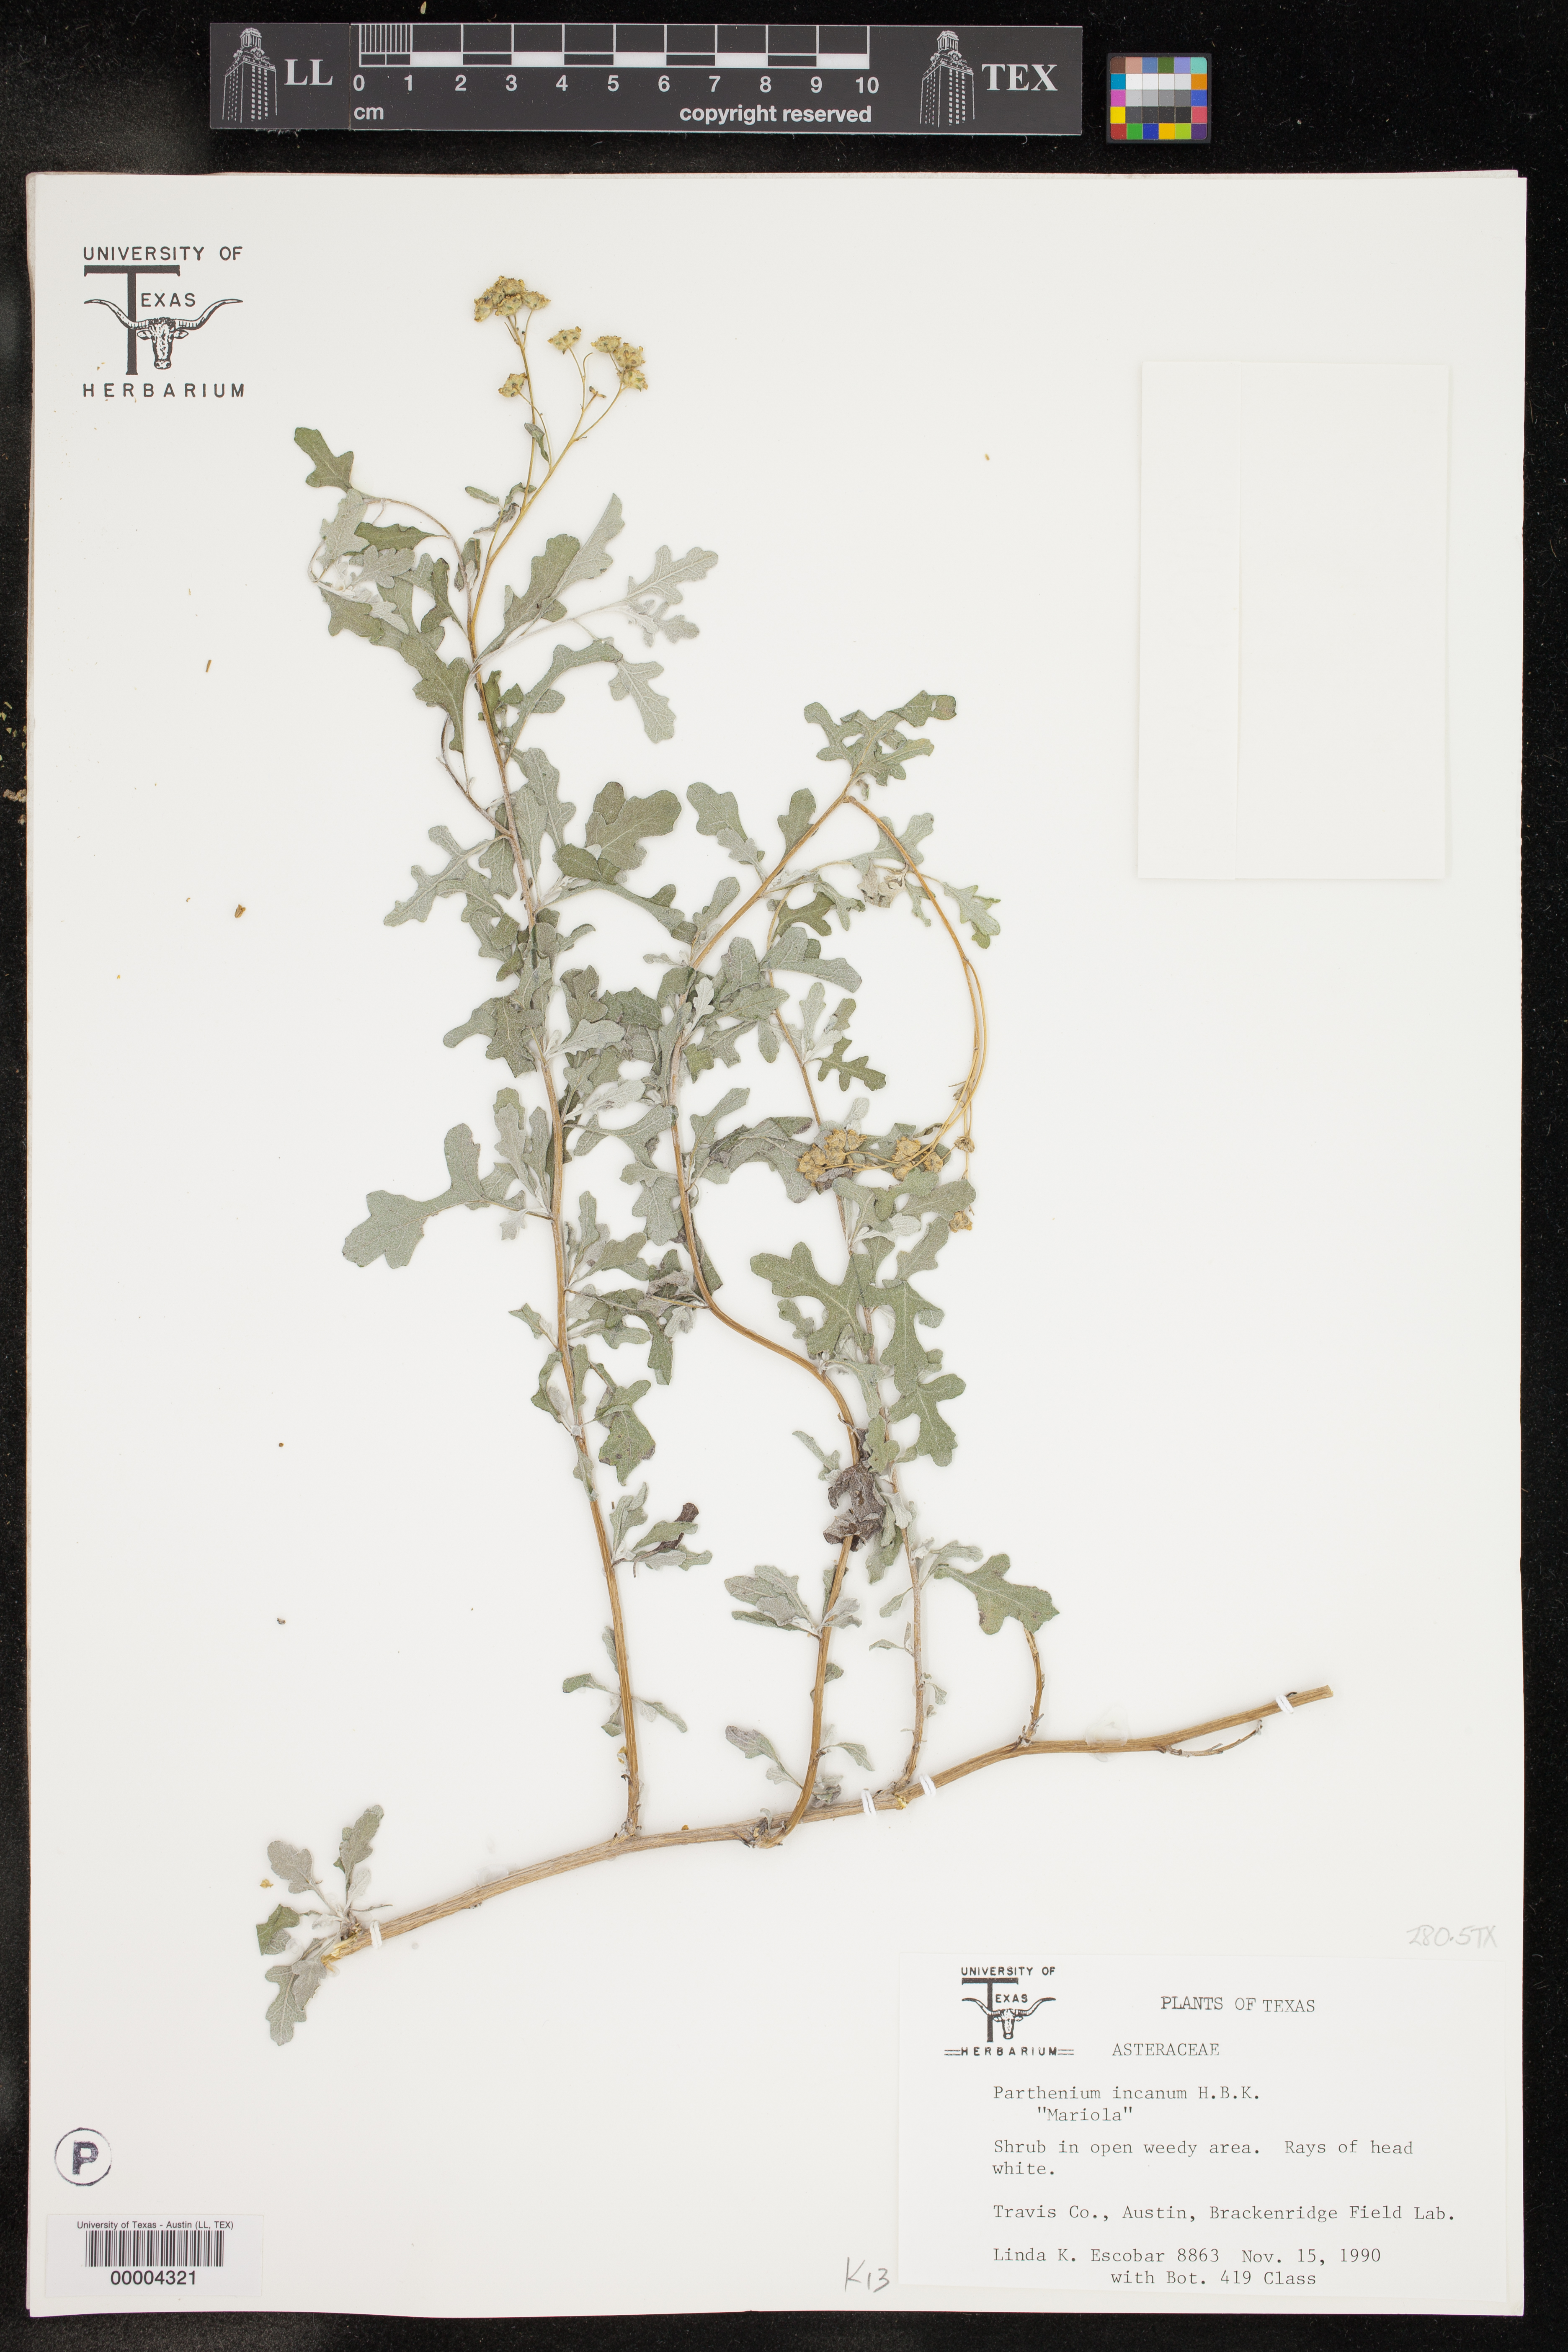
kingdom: Plantae
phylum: Tracheophyta
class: Magnoliopsida
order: Asterales
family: Asteraceae
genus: Parthenium
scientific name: Parthenium incanum
